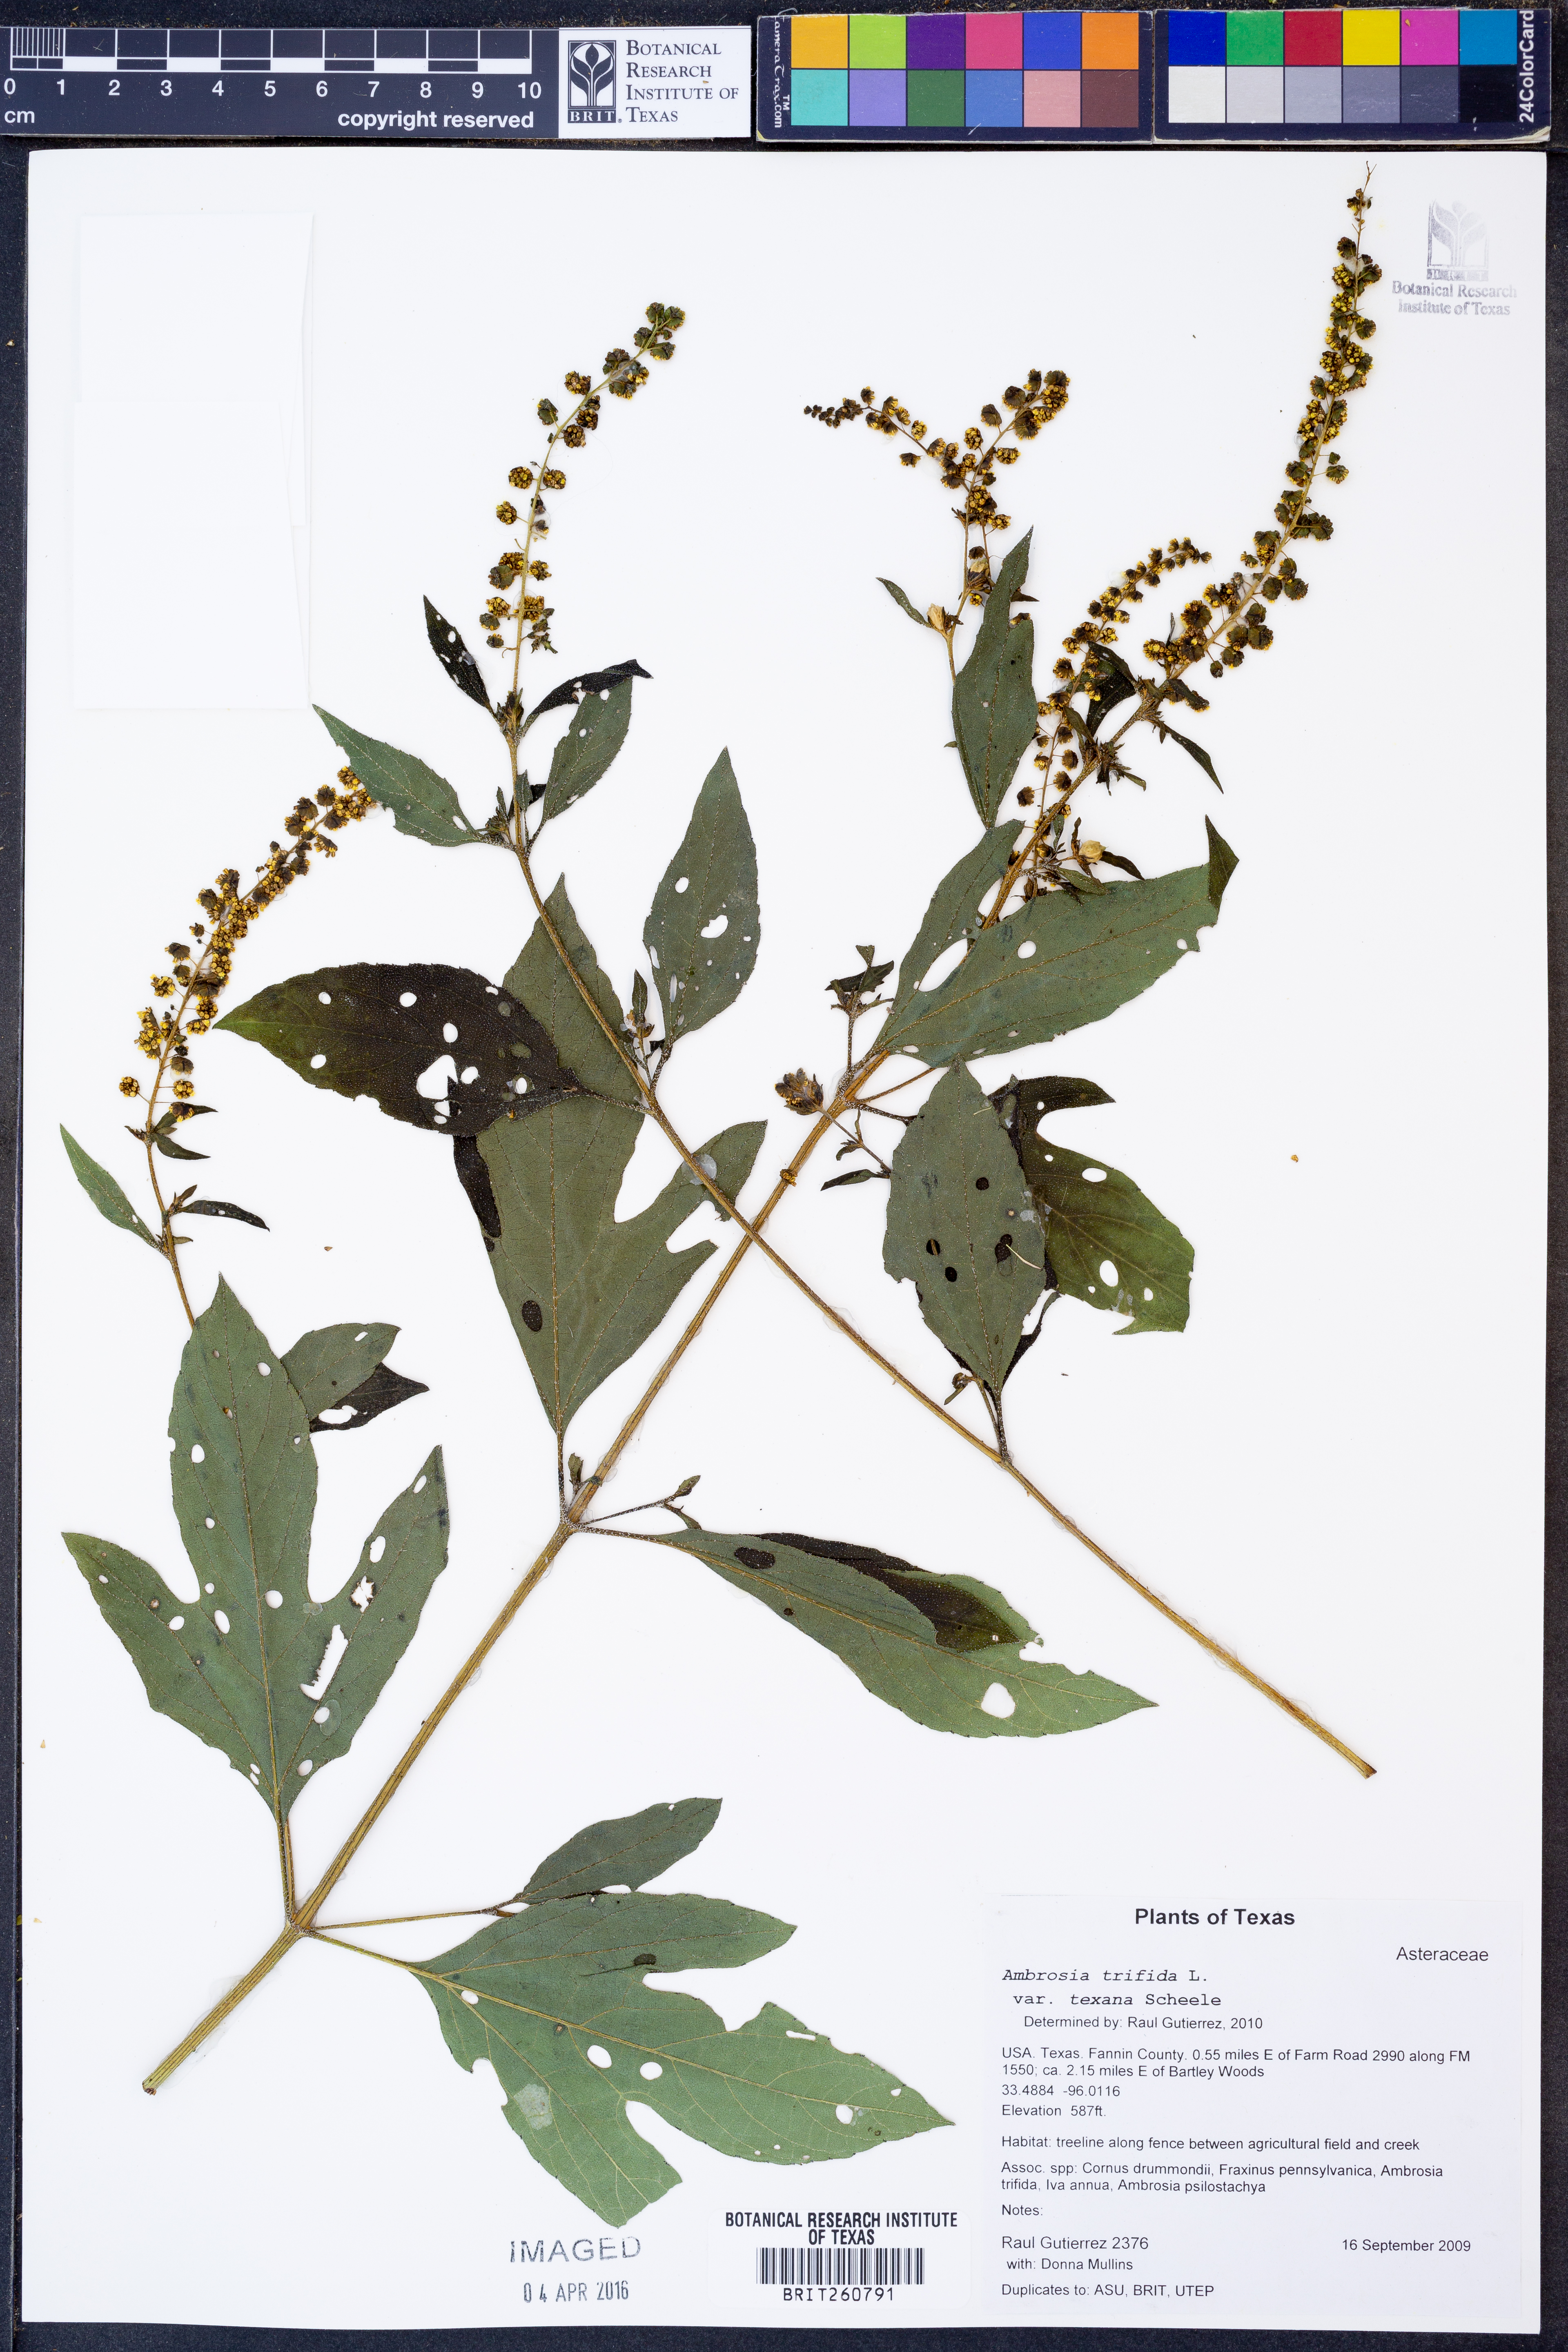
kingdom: Plantae
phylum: Tracheophyta
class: Magnoliopsida
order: Asterales
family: Asteraceae
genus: Ambrosia
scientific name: Ambrosia trifida
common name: Giant ragweed
